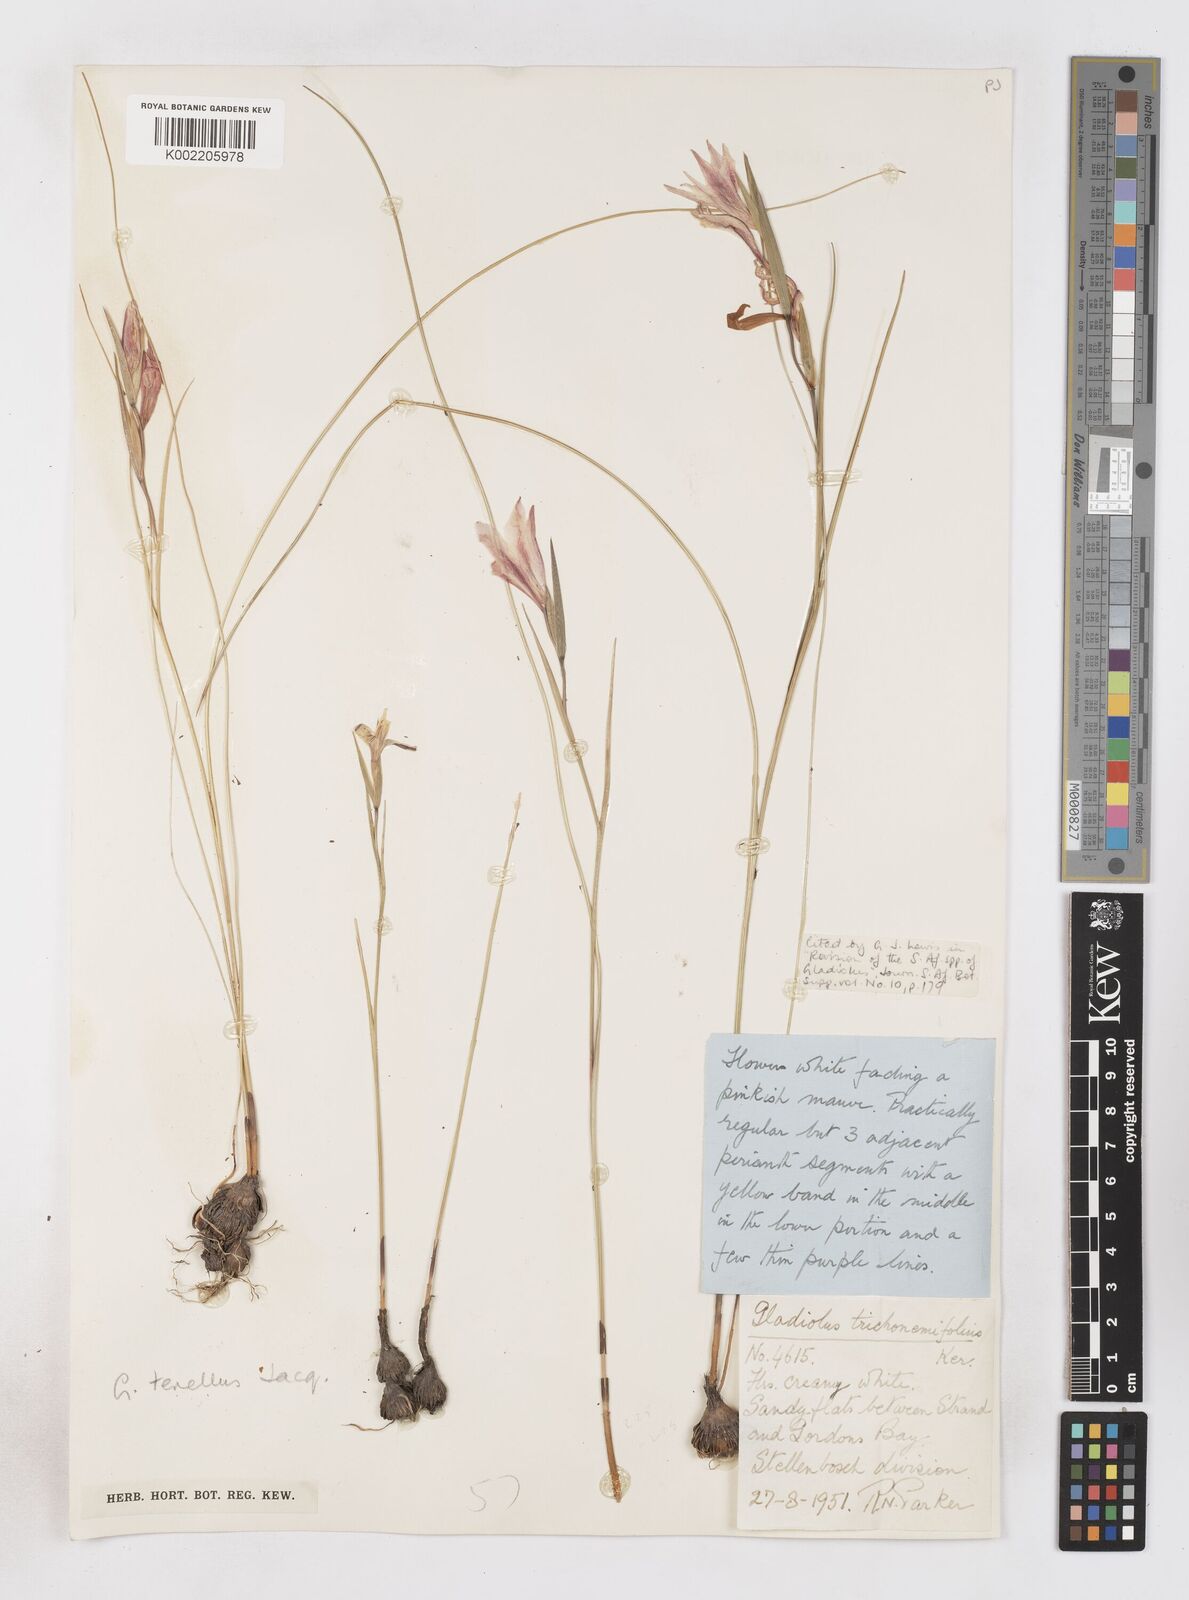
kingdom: Plantae
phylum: Tracheophyta
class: Liliopsida
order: Asparagales
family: Iridaceae
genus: Gladiolus
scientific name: Gladiolus carinatus
